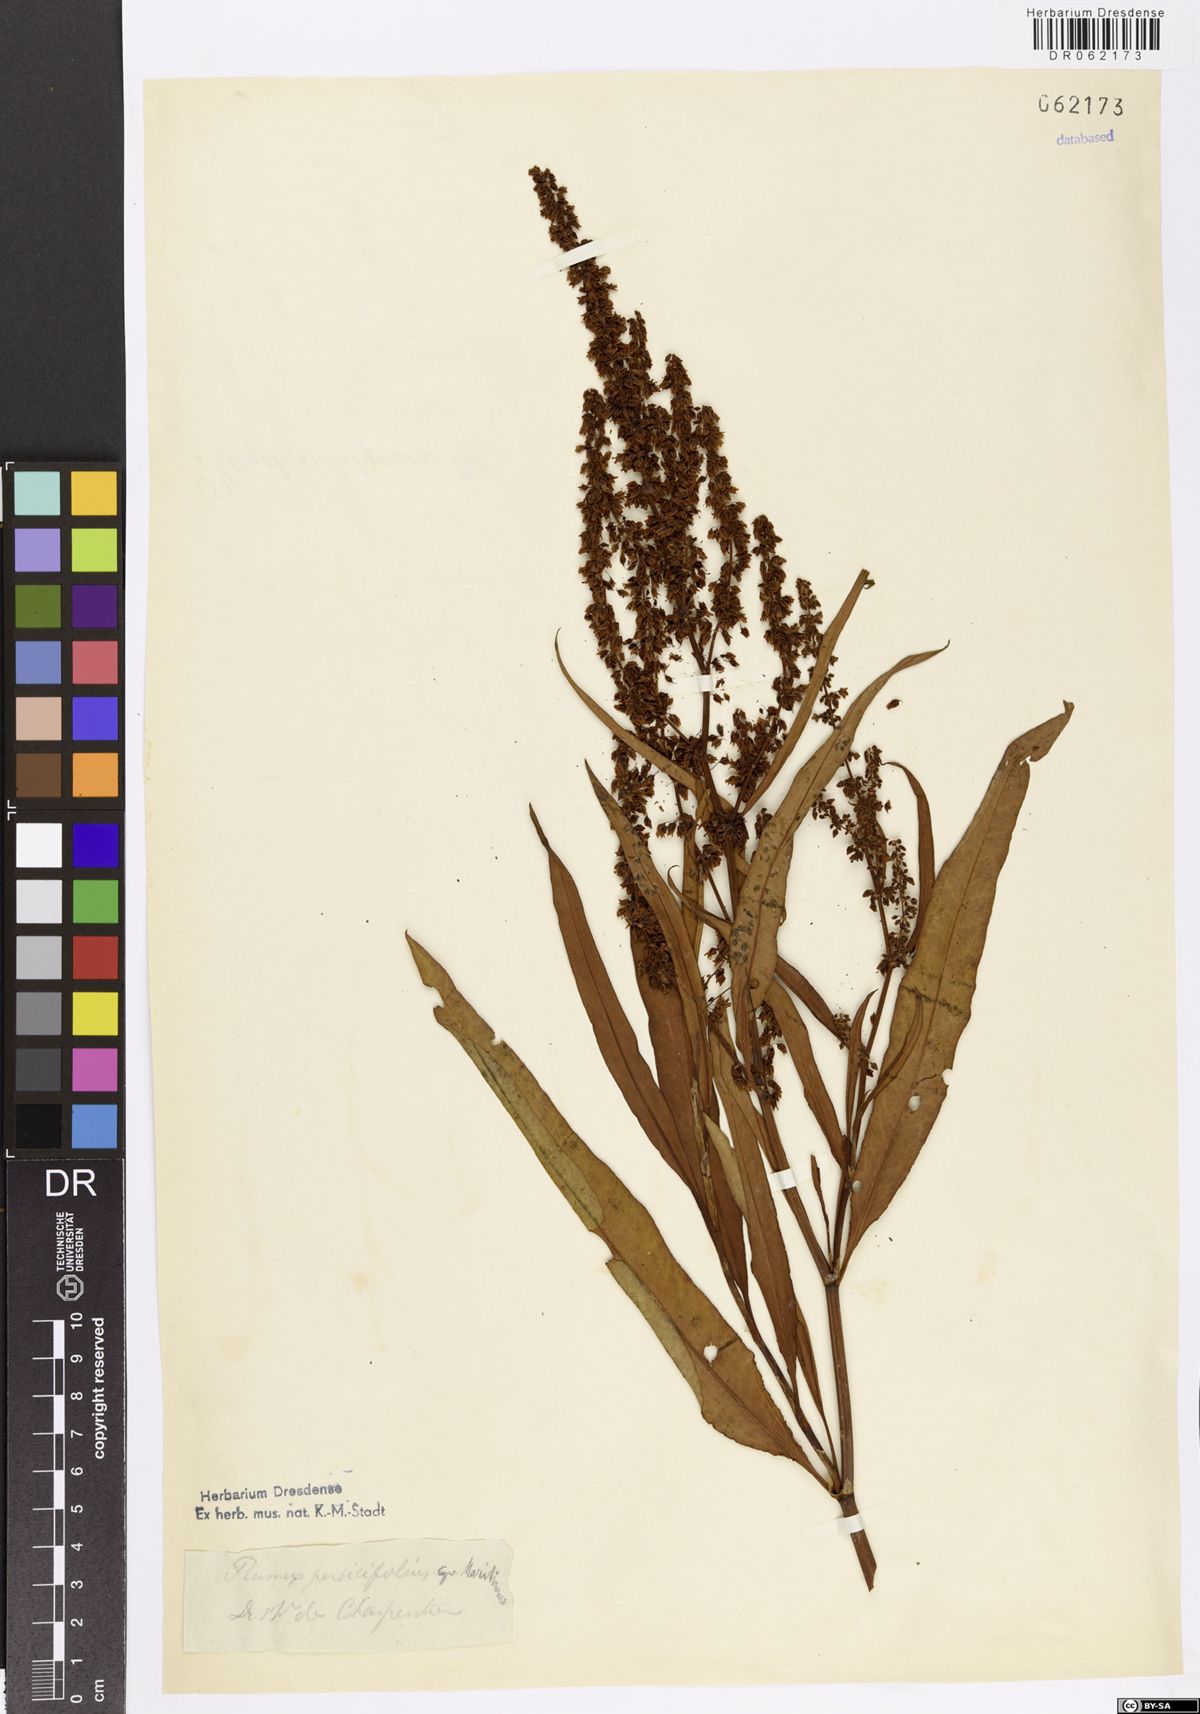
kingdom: Plantae
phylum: Tracheophyta
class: Magnoliopsida
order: Caryophyllales
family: Polygonaceae
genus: Rumex
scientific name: Rumex
